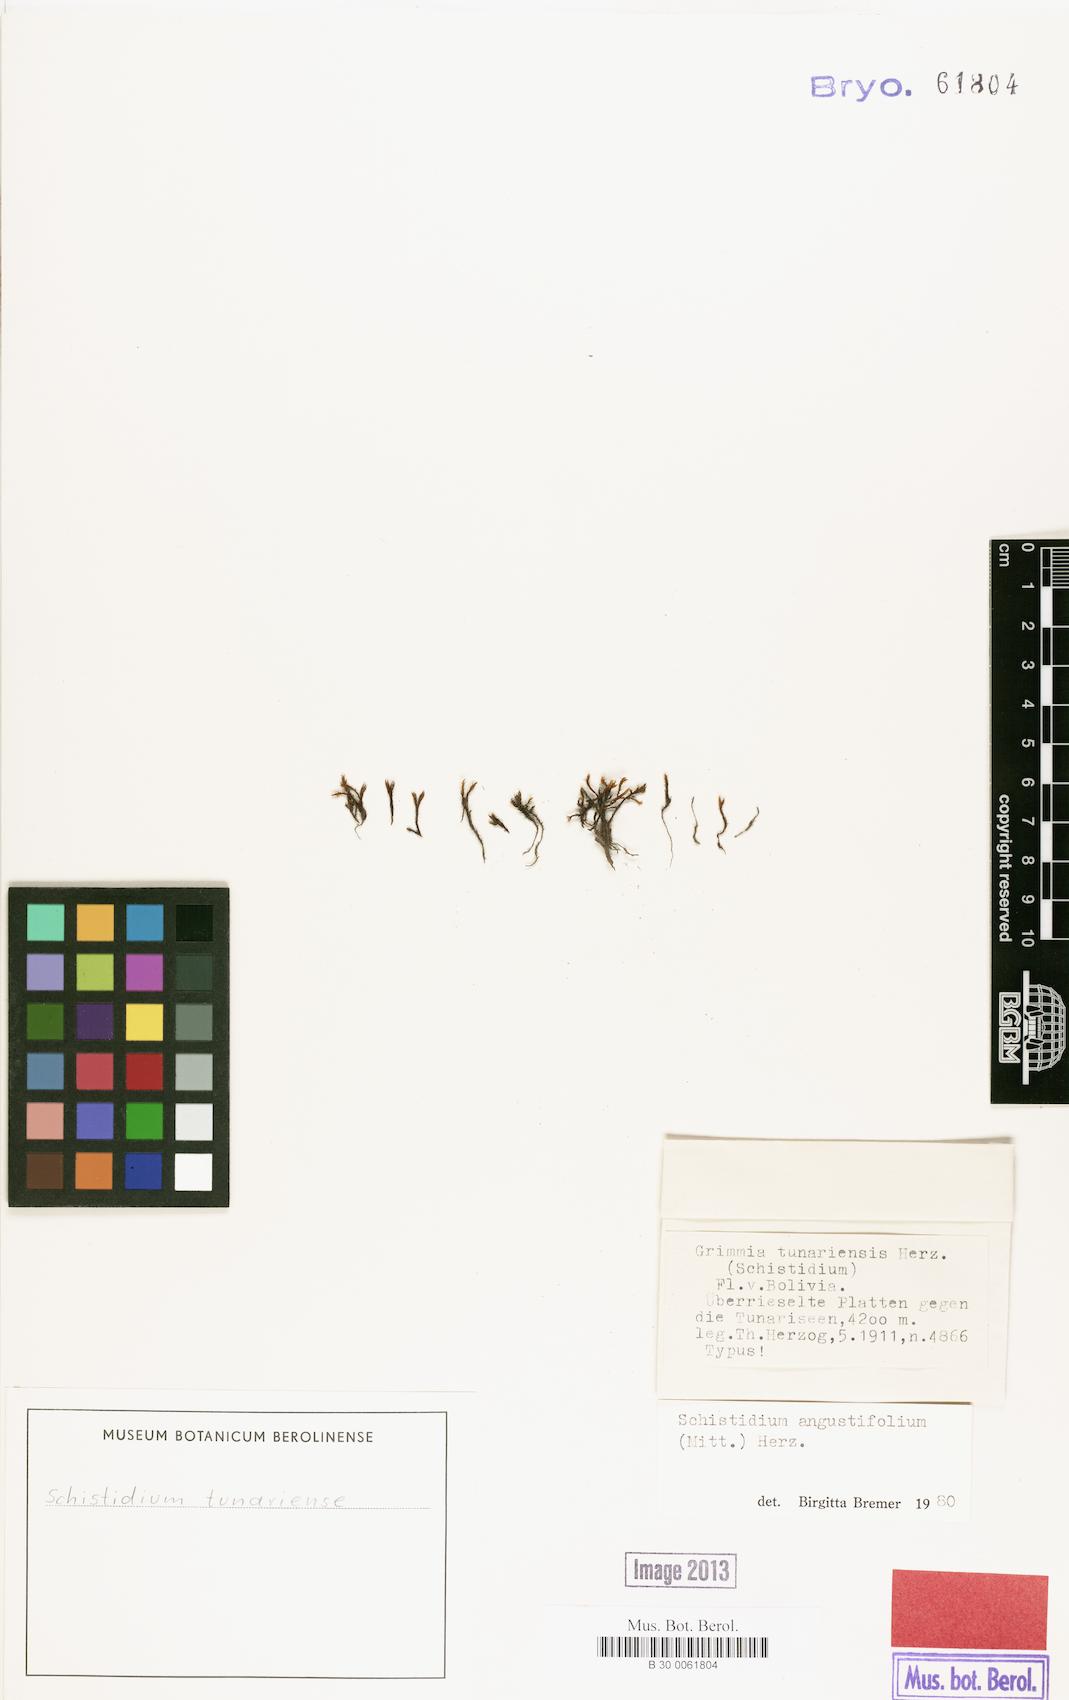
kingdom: Plantae
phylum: Bryophyta
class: Bryopsida
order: Grimmiales
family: Grimmiaceae
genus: Schistidium
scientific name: Schistidium amblyophyllum
